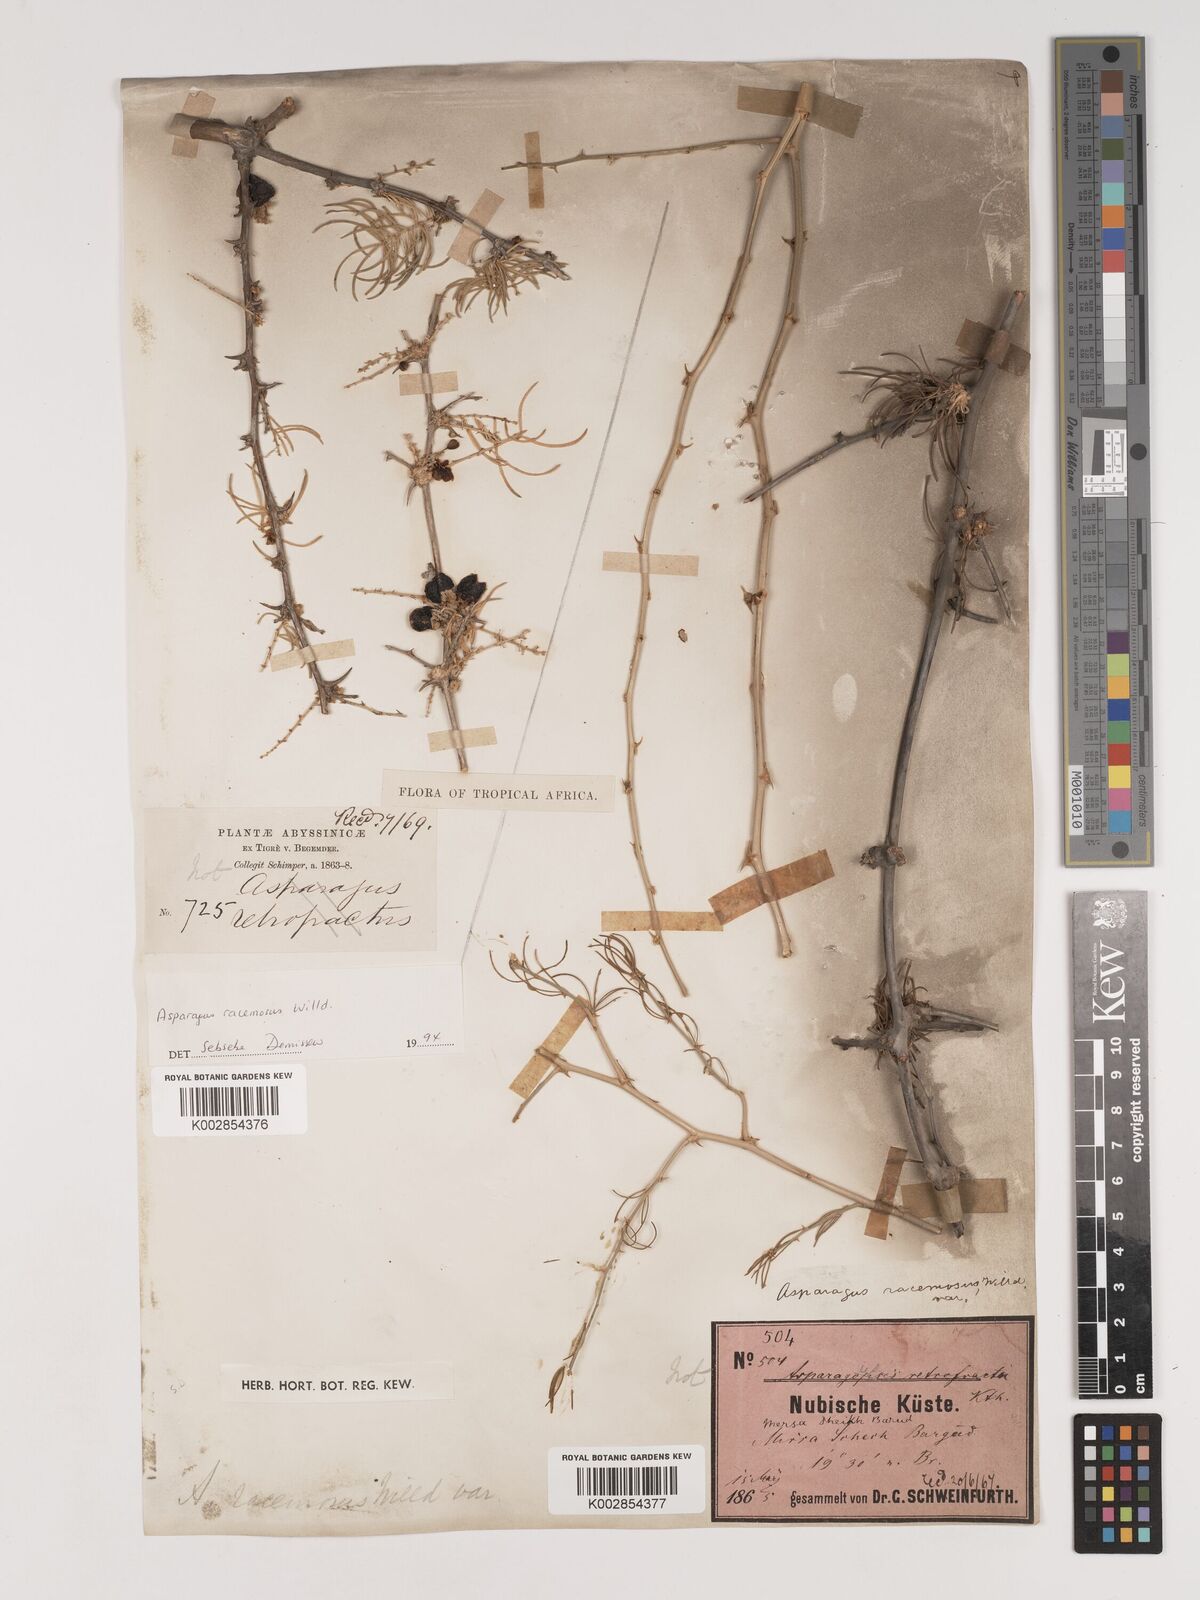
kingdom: Plantae
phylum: Tracheophyta
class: Liliopsida
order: Asparagales
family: Asparagaceae
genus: Asparagus
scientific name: Asparagus racemosus
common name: Asparagus-fern
